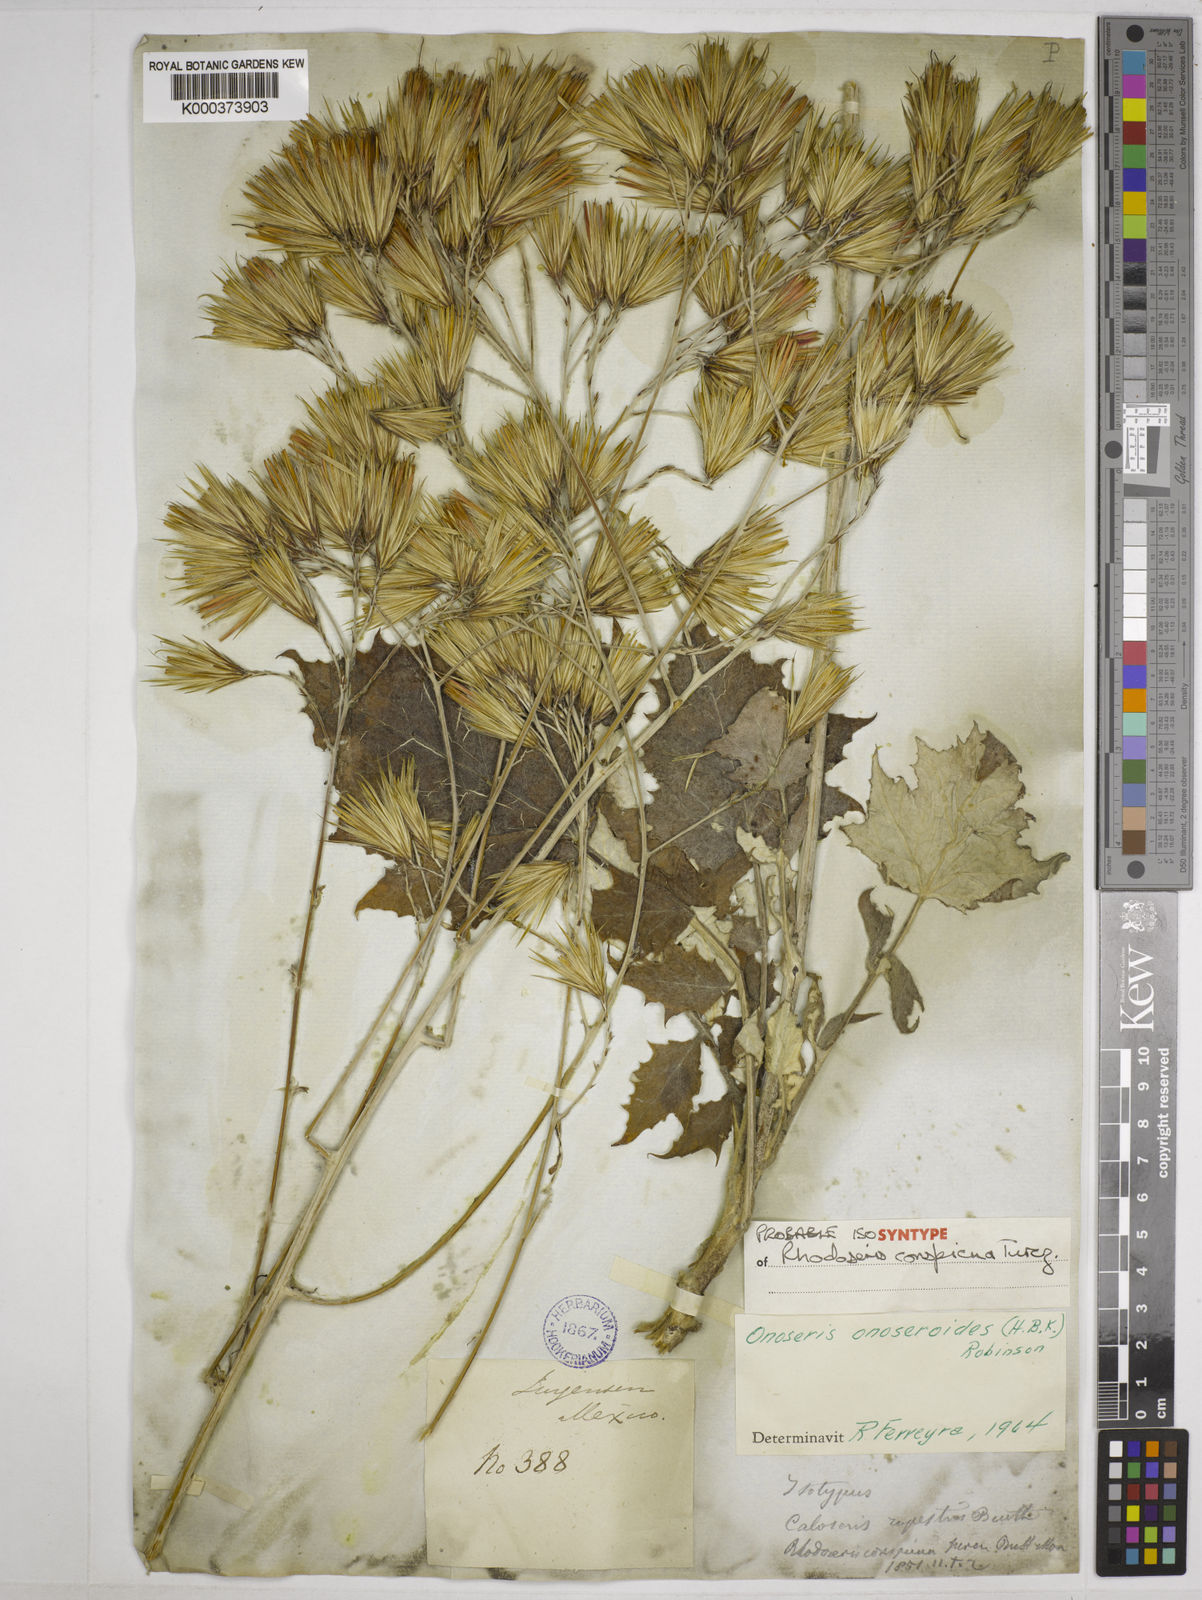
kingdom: Plantae
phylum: Tracheophyta
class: Magnoliopsida
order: Asterales
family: Asteraceae
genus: Onoseris
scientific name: Onoseris onoseroides
